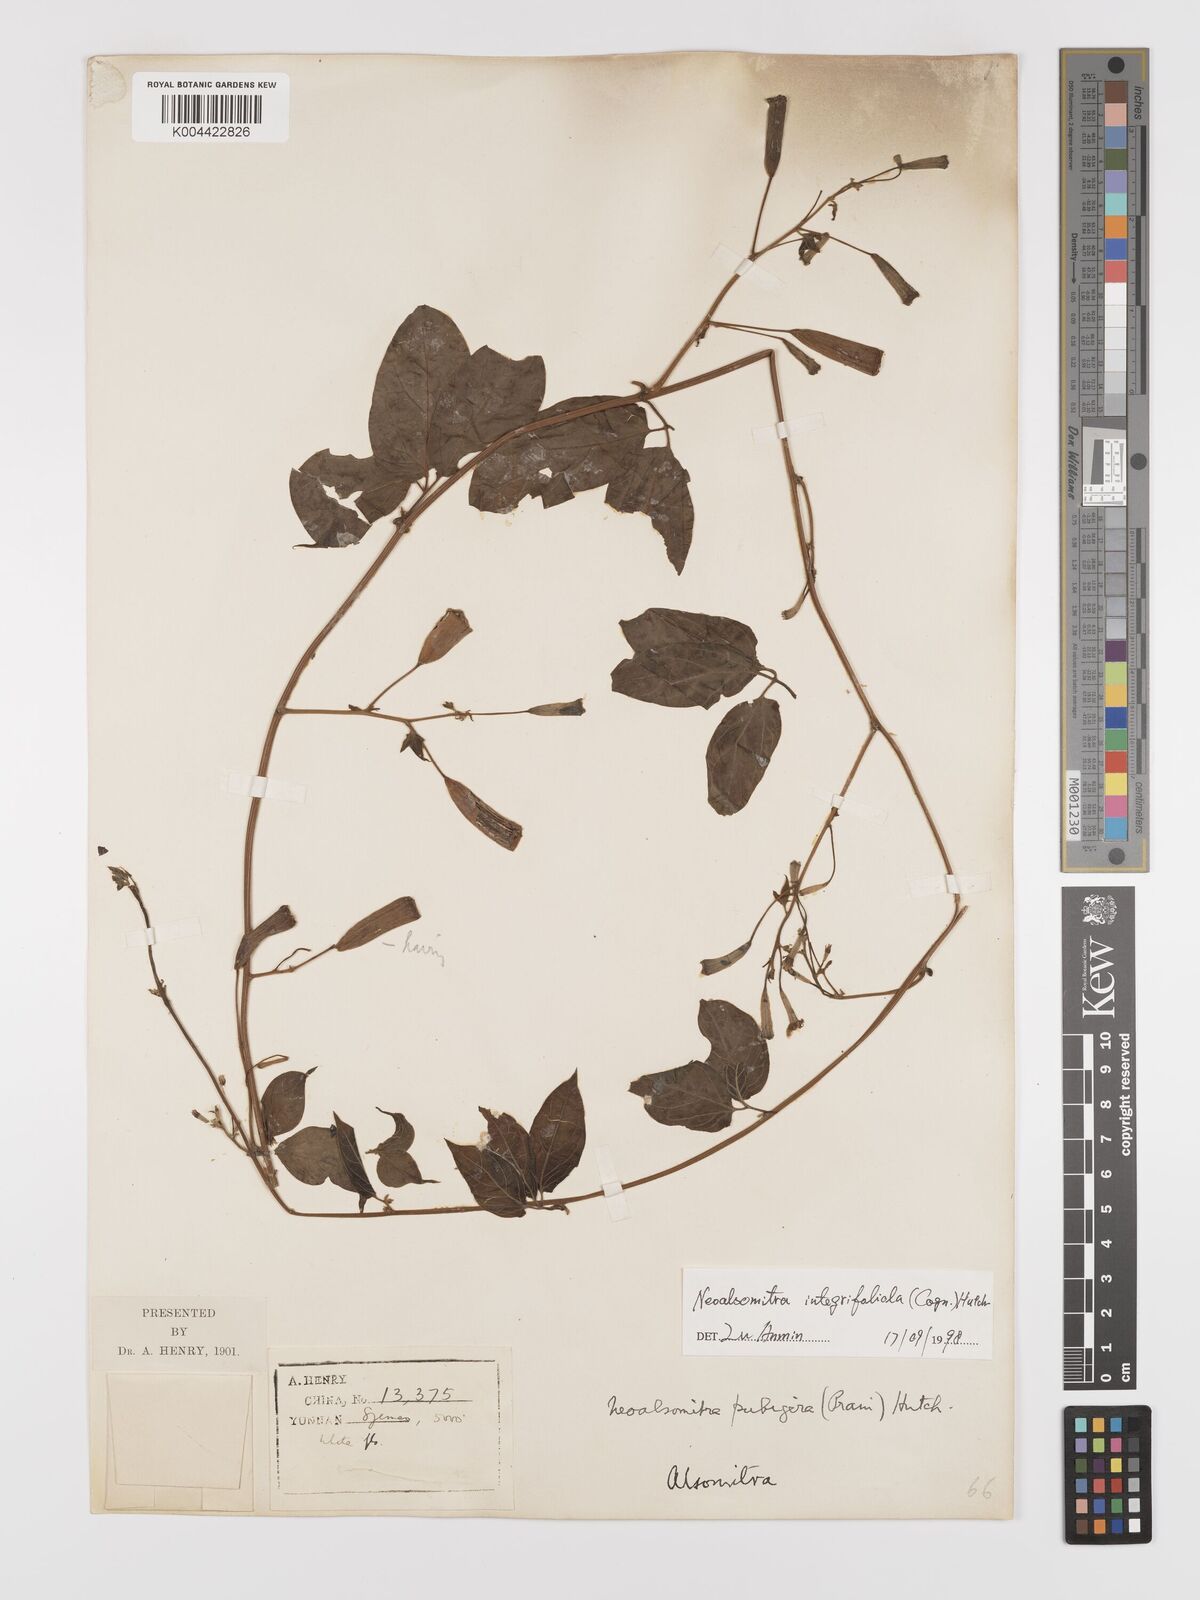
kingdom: Plantae
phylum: Tracheophyta
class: Magnoliopsida
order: Cucurbitales
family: Cucurbitaceae
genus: Neoalsomitra
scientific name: Neoalsomitra clavigera
